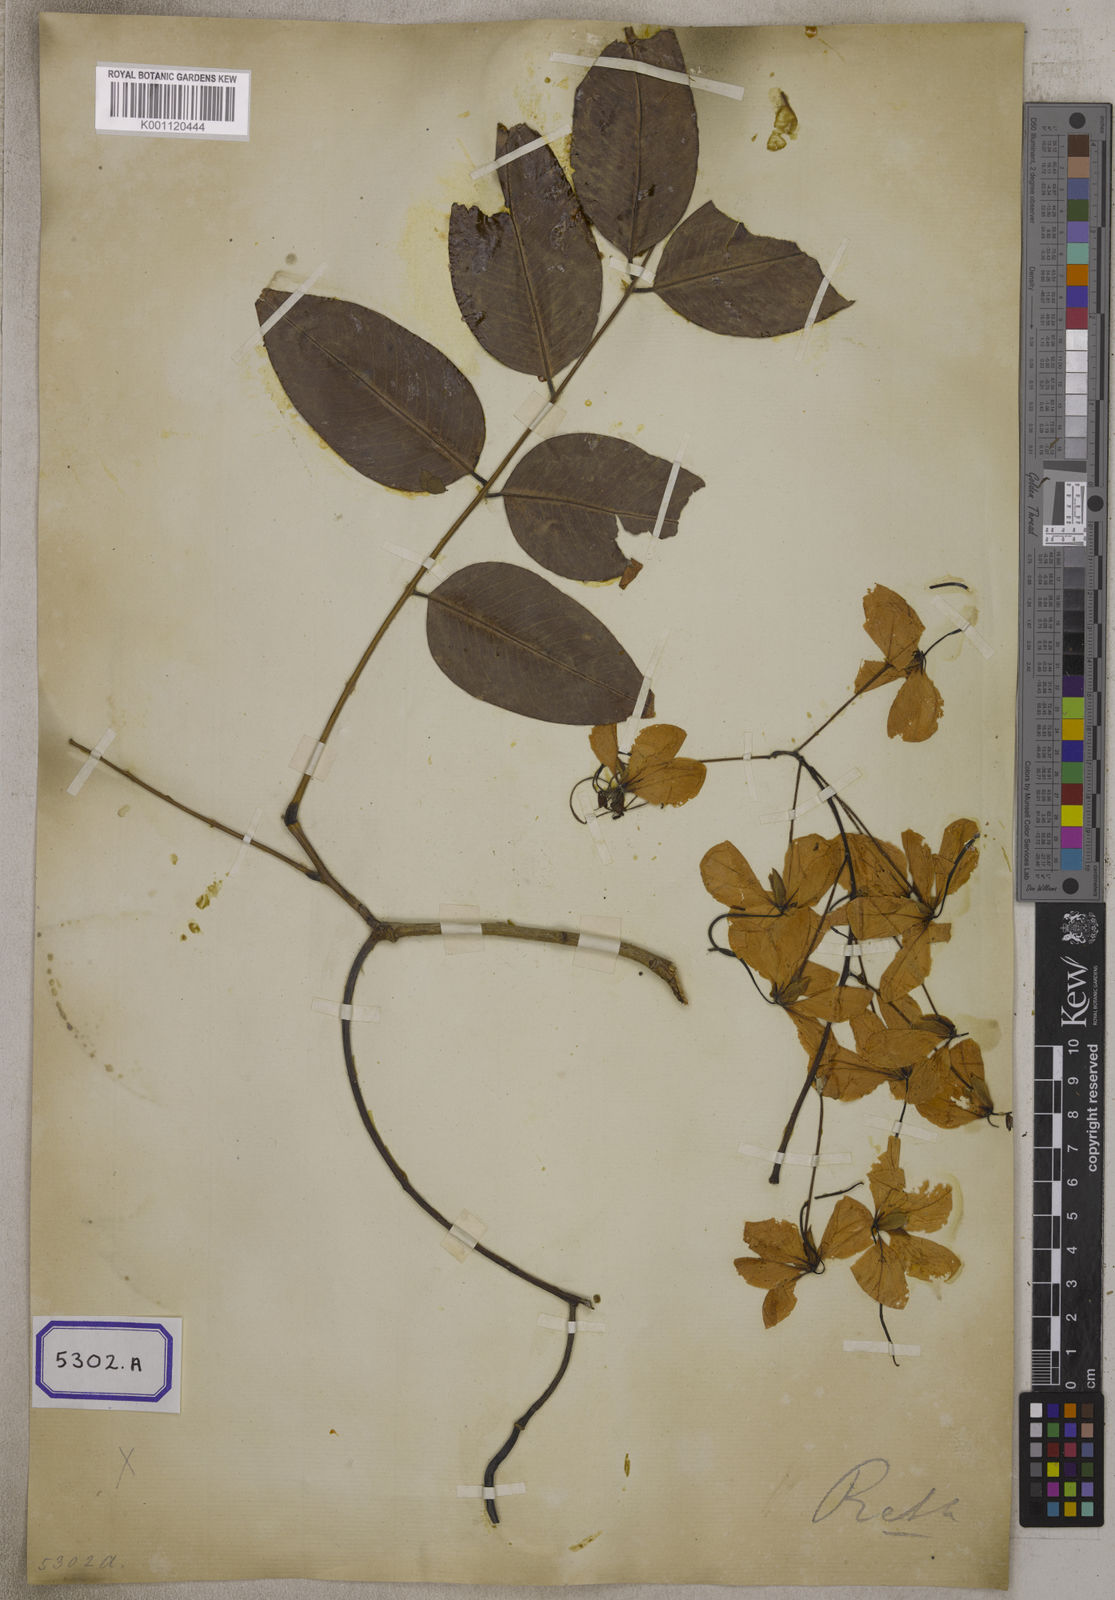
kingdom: Plantae
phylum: Tracheophyta
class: Magnoliopsida
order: Fabales
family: Fabaceae
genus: Cassia
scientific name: Cassia fistula
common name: Golden shower
